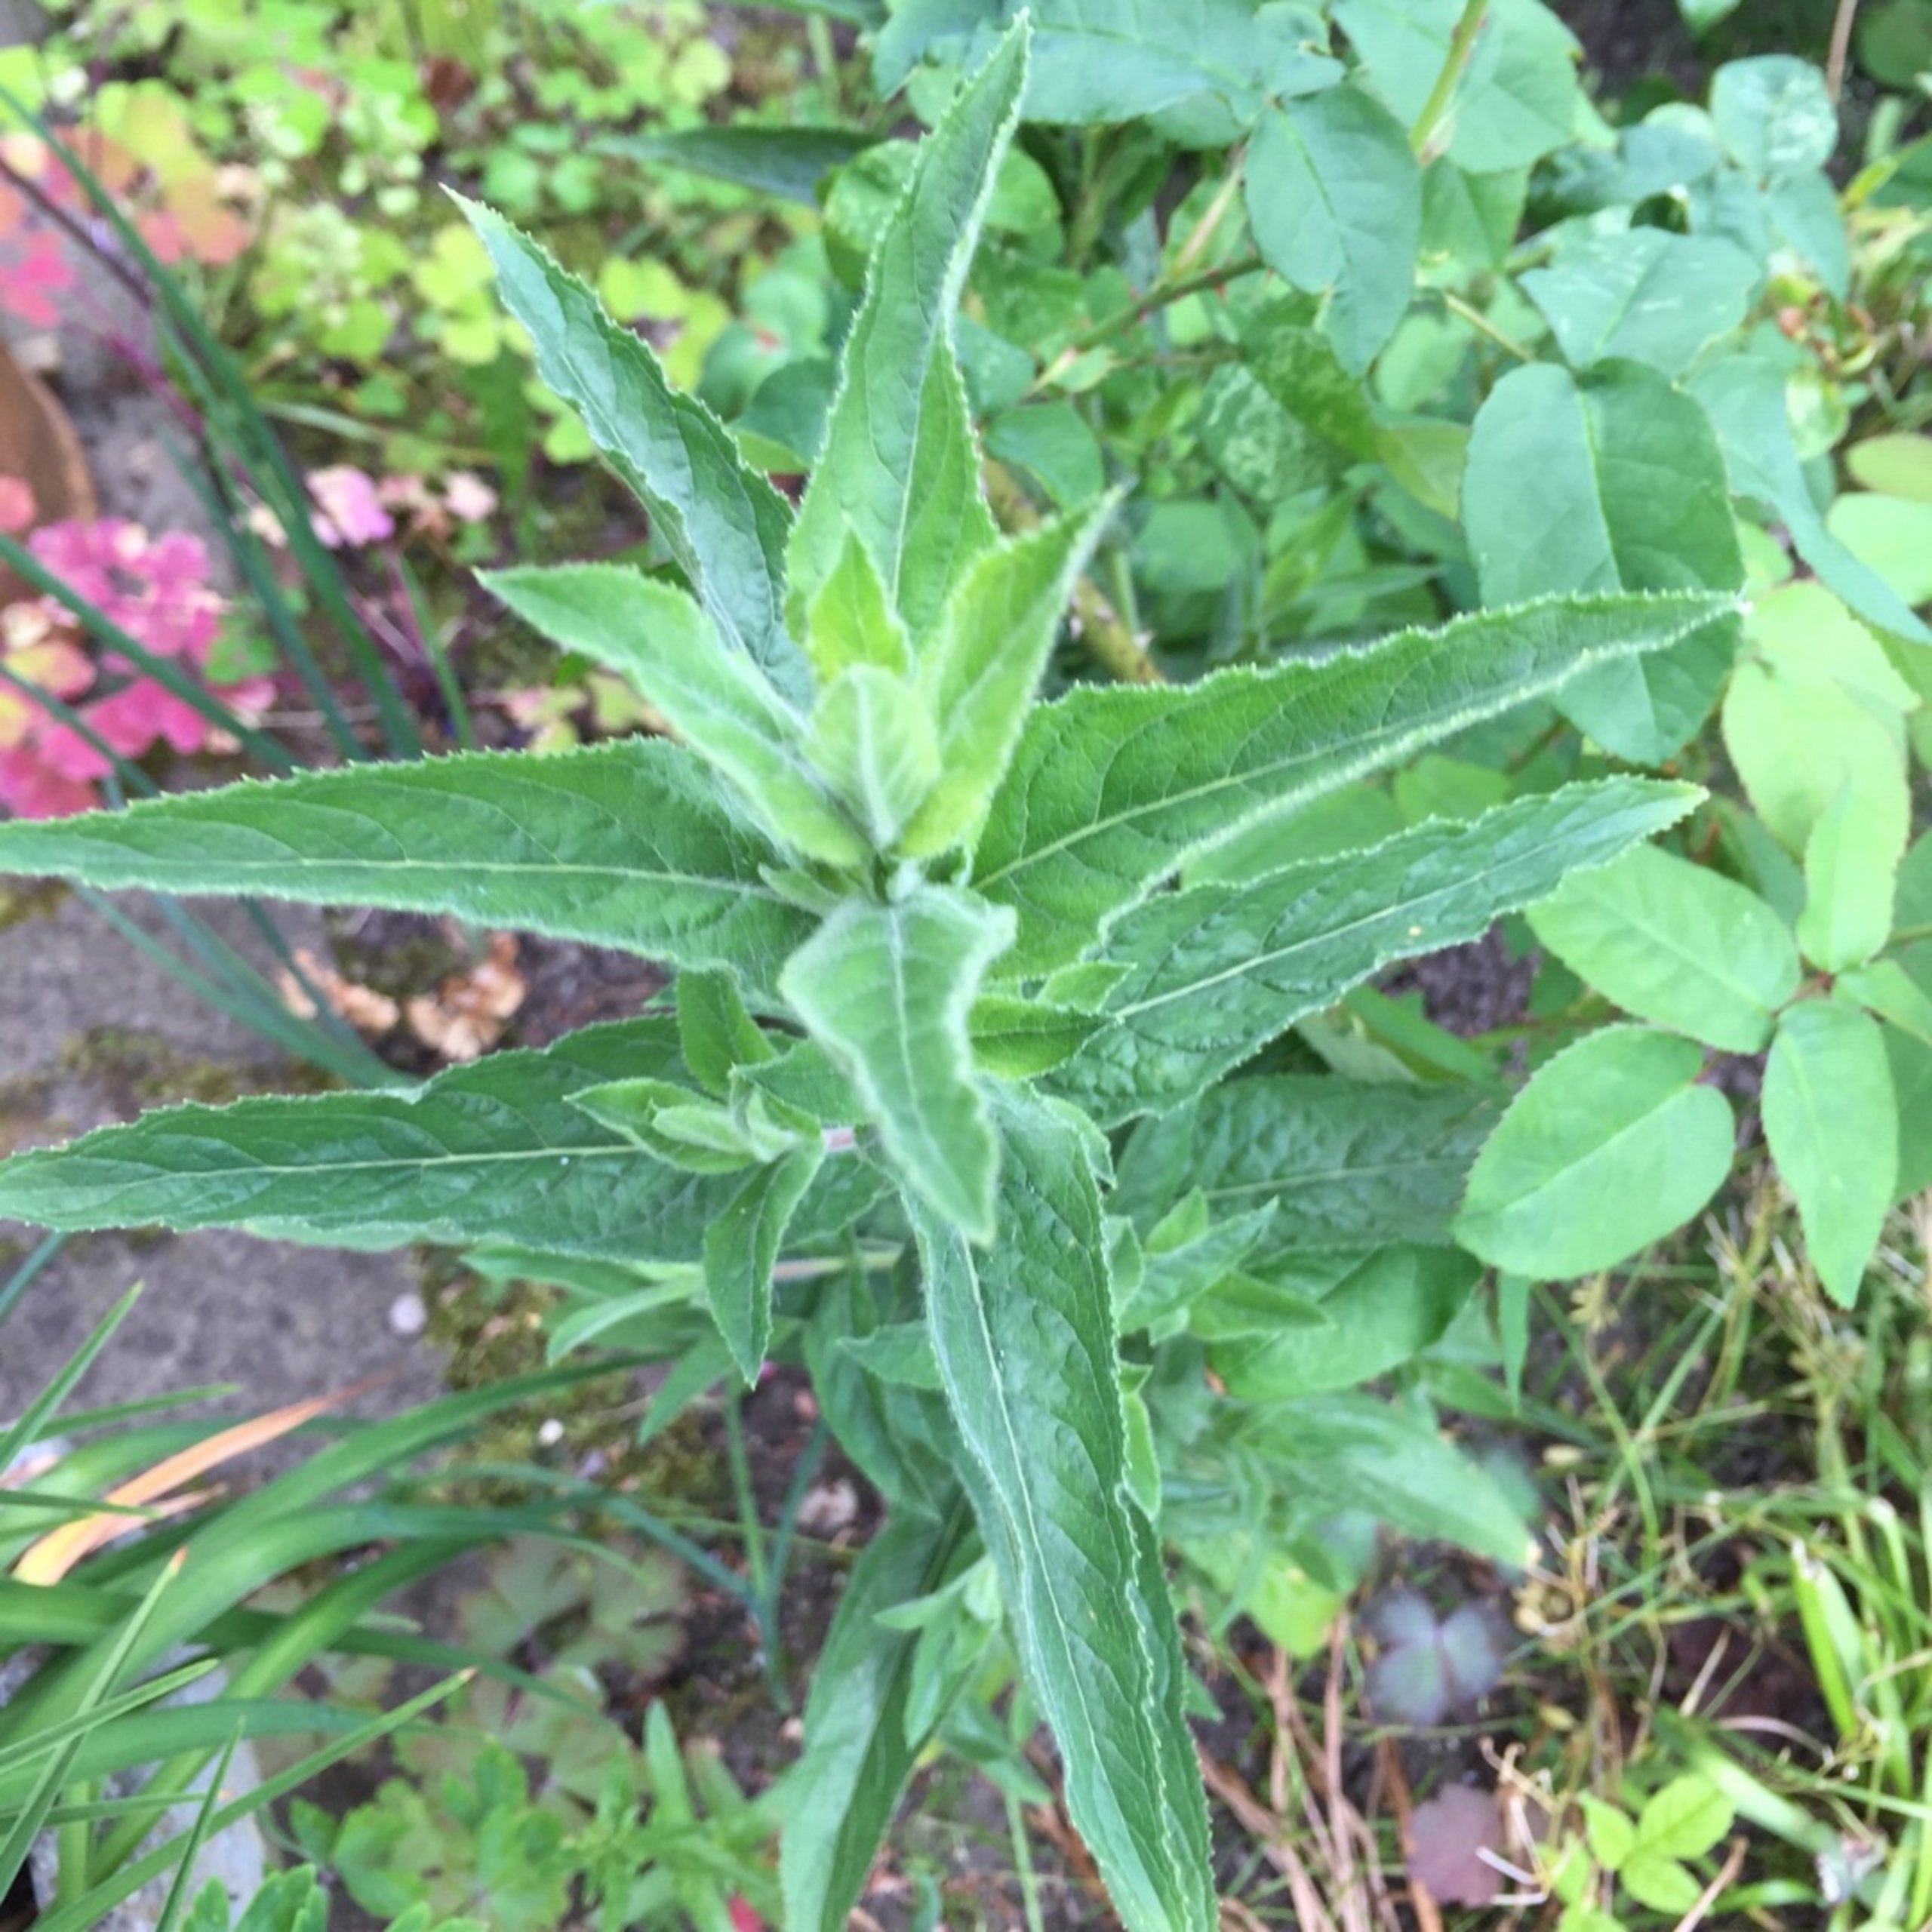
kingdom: Plantae
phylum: Tracheophyta
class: Magnoliopsida
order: Myrtales
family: Onagraceae
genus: Epilobium
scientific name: Epilobium hirsutum
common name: Lådden dueurt
